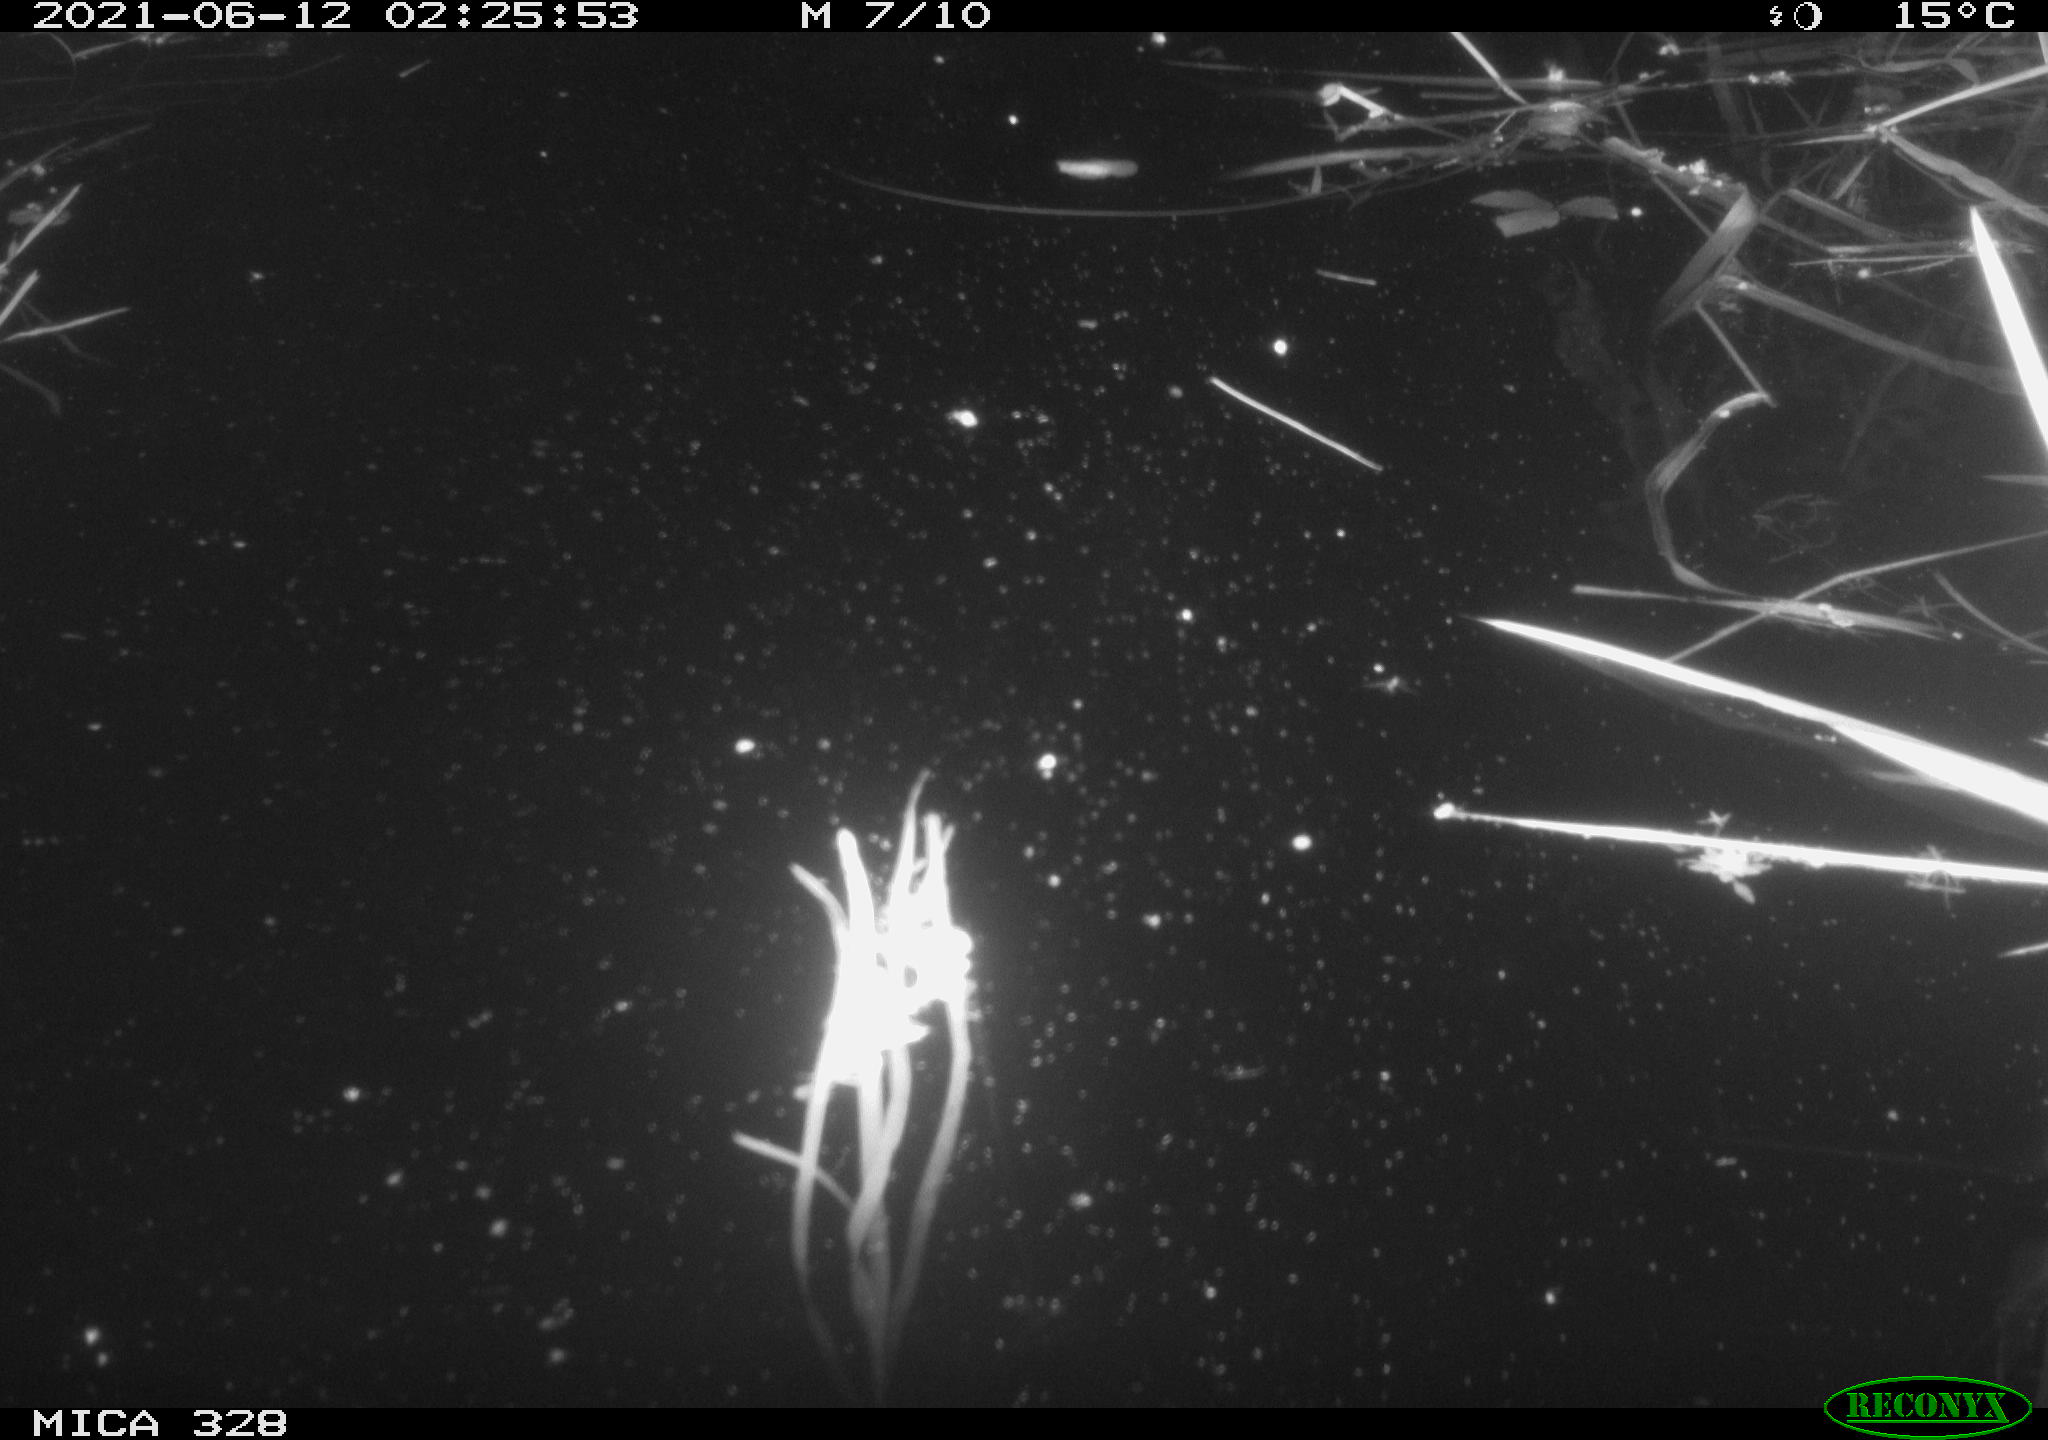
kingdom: Animalia
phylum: Chordata
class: Mammalia
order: Rodentia
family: Cricetidae
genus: Ondatra
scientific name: Ondatra zibethicus
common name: Muskrat
